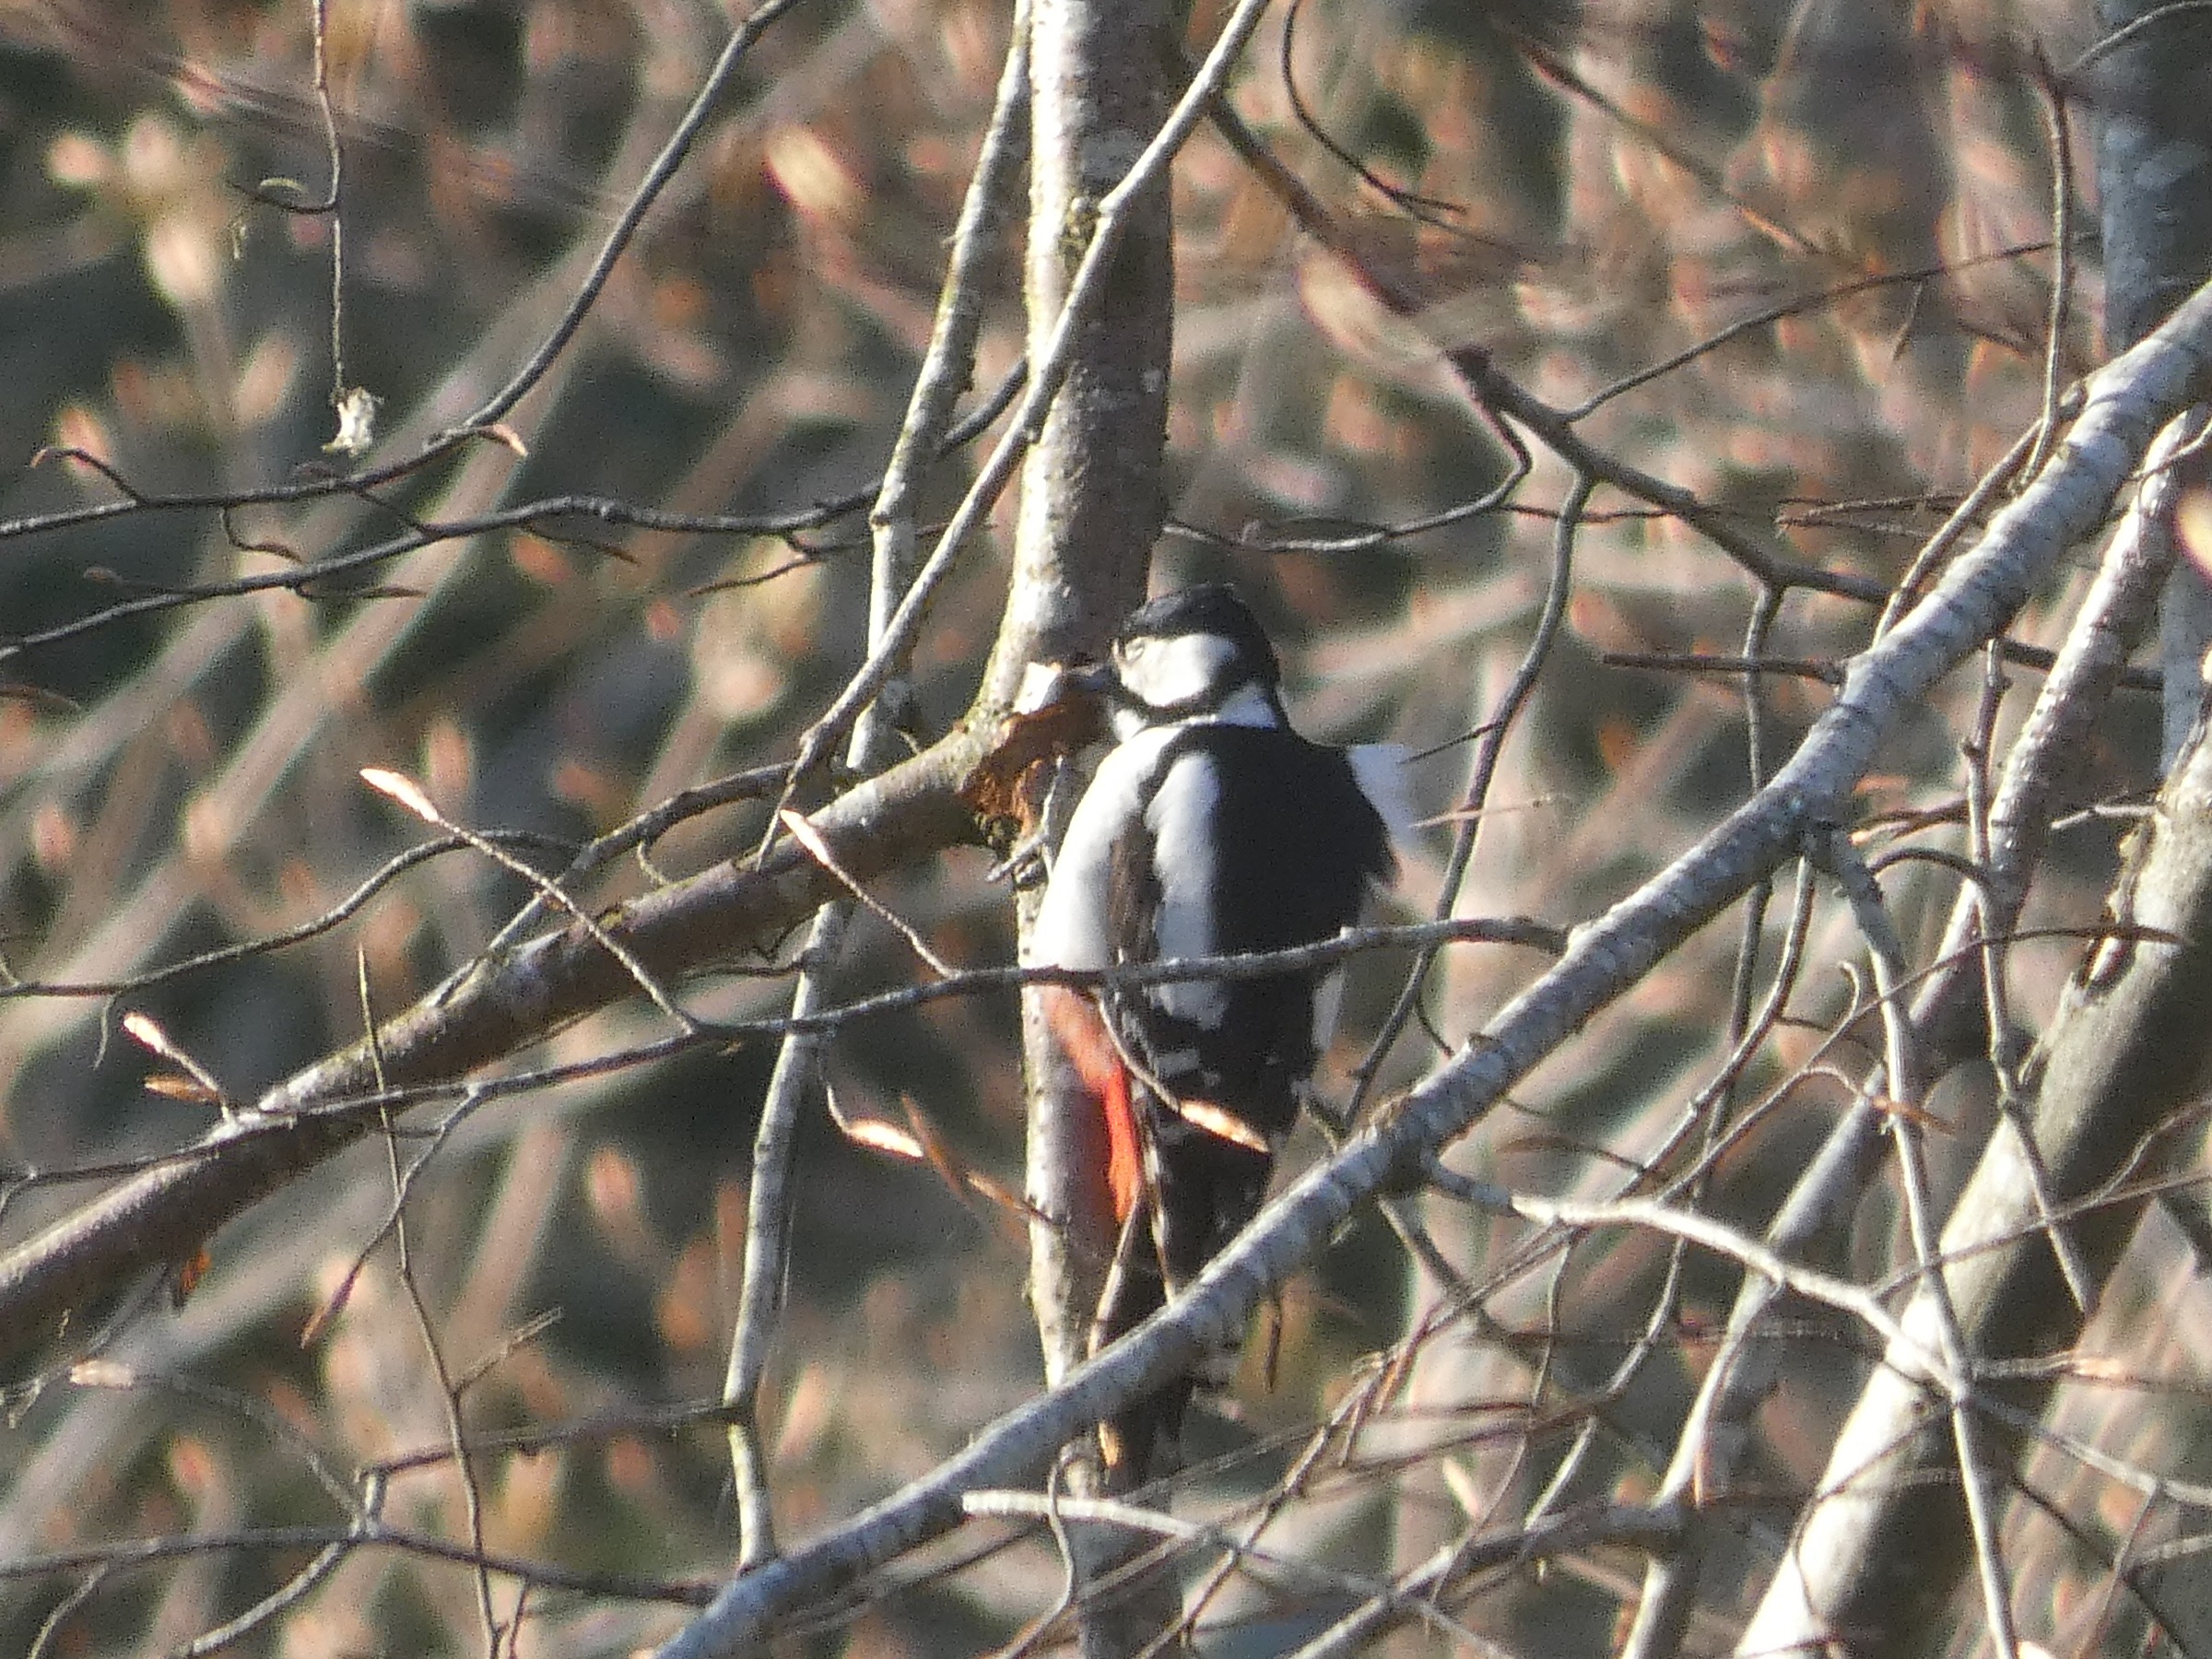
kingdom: Animalia
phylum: Chordata
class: Aves
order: Piciformes
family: Picidae
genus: Dendrocopos
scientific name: Dendrocopos major
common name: Stor flagspætte
